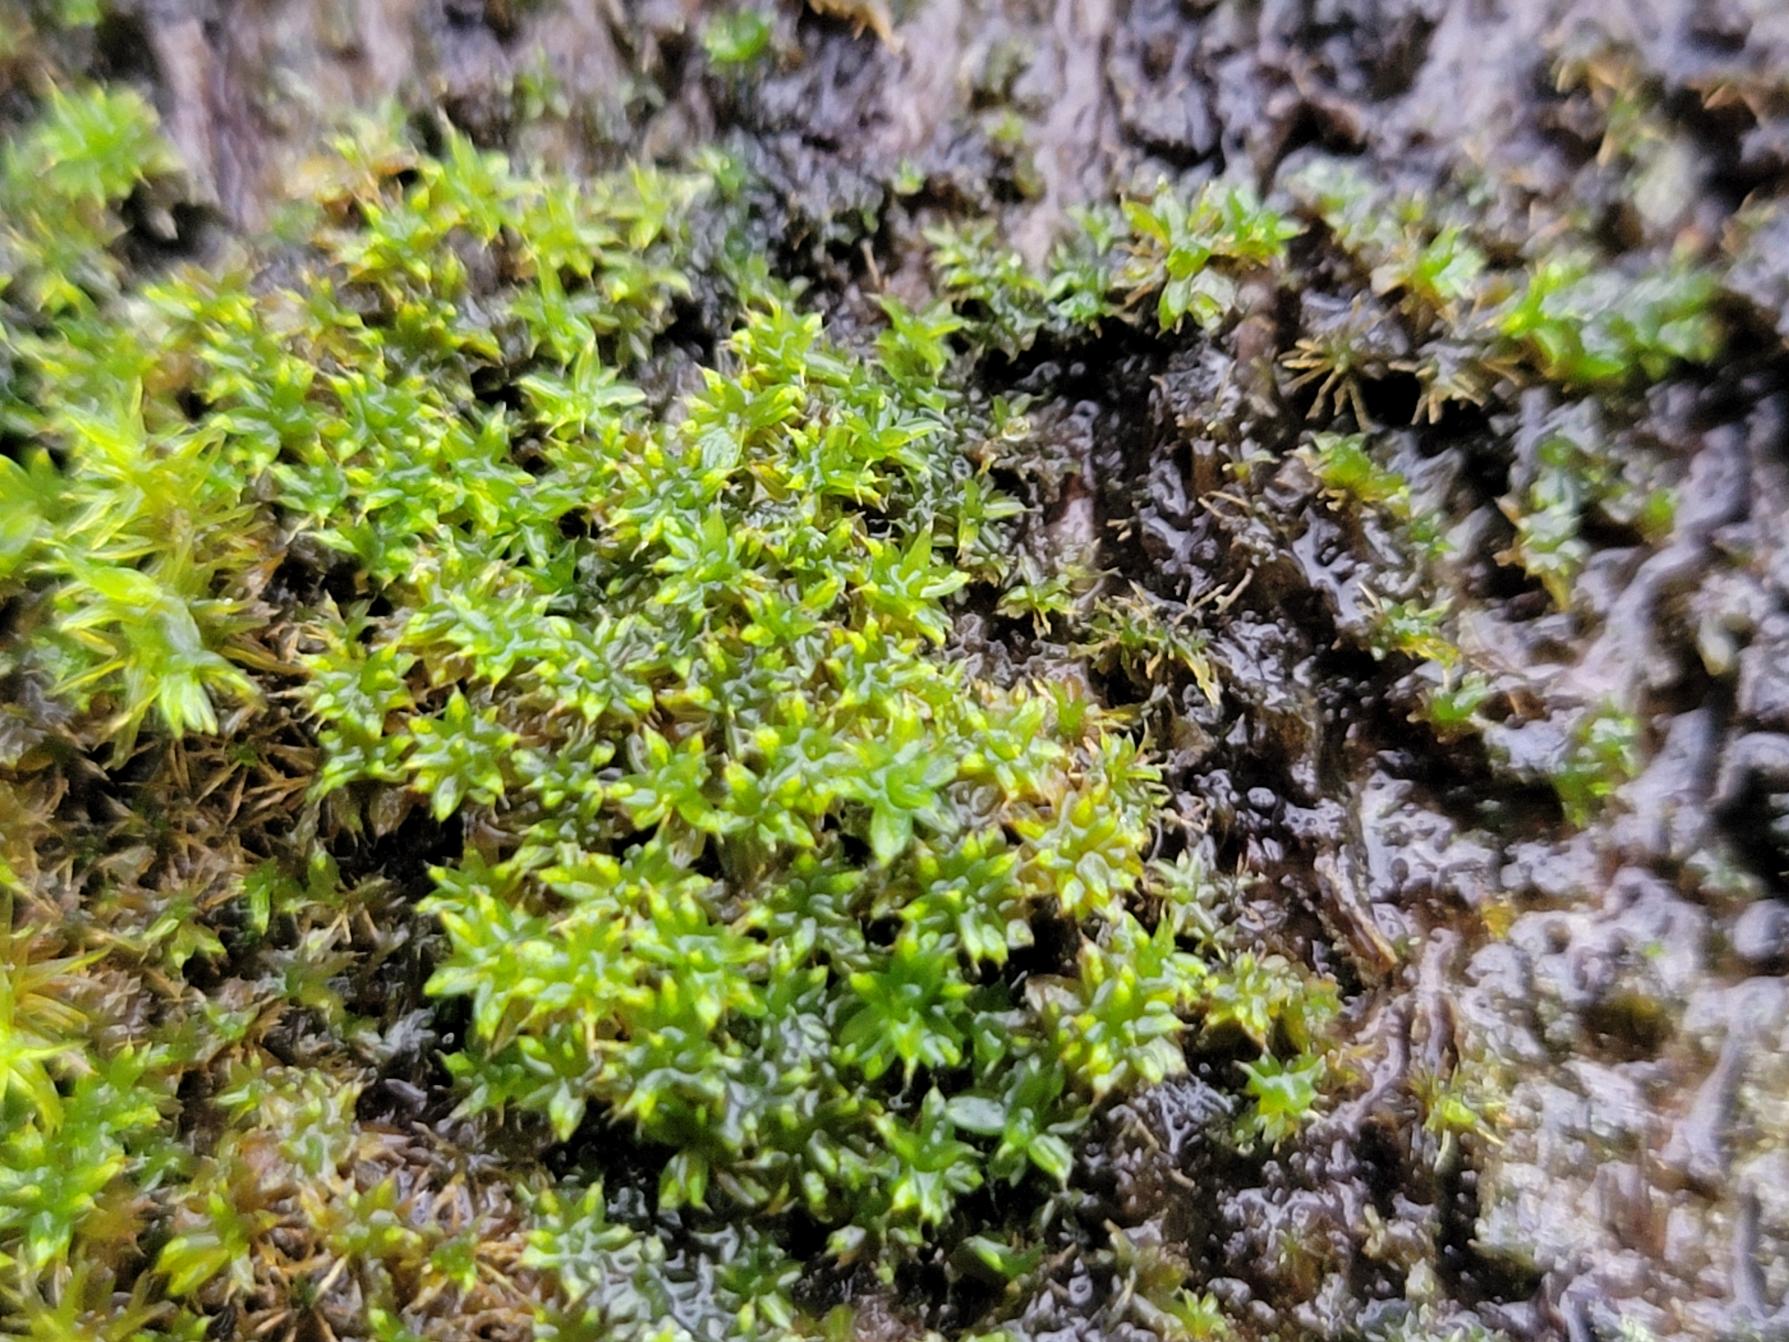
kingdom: Plantae
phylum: Bryophyta
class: Bryopsida
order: Pottiales
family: Pottiaceae
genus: Syntrichia
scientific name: Syntrichia papillosa
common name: Bark-hårstjerne
